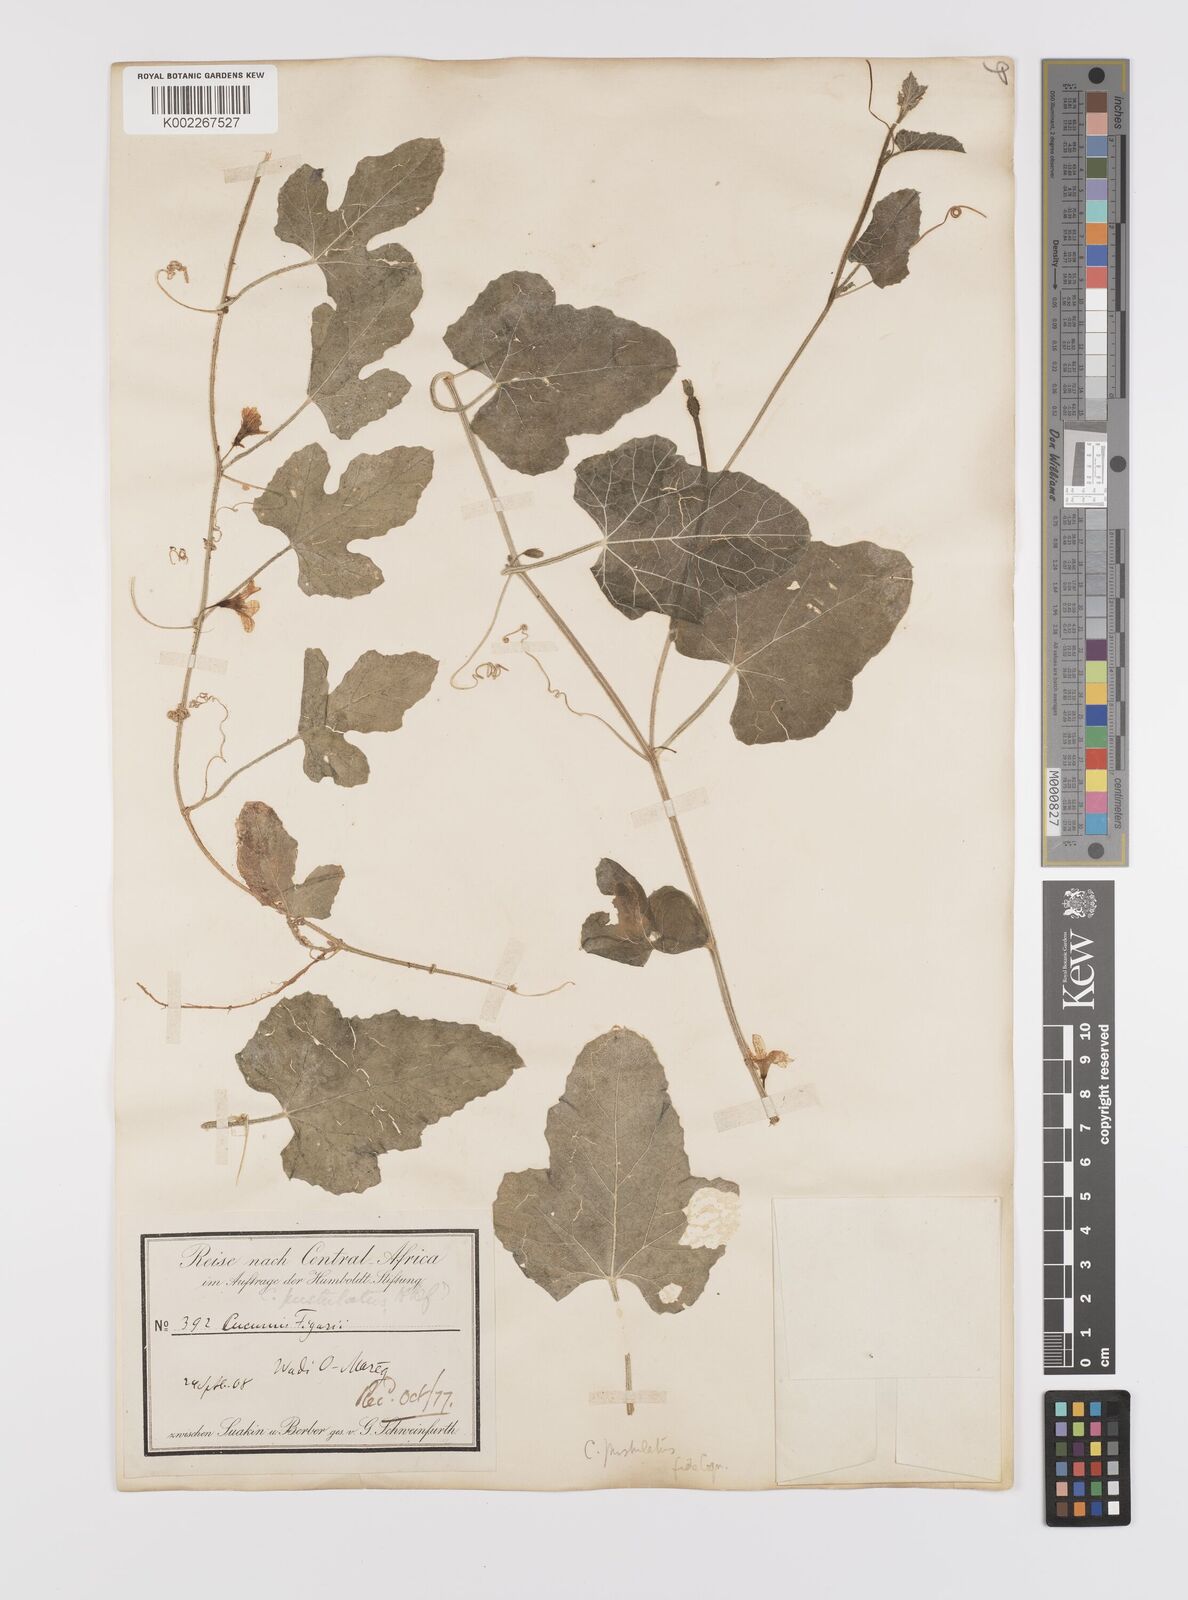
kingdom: Plantae
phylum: Tracheophyta
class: Magnoliopsida
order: Cucurbitales
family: Cucurbitaceae
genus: Cucumis
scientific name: Cucumis pustulatus
